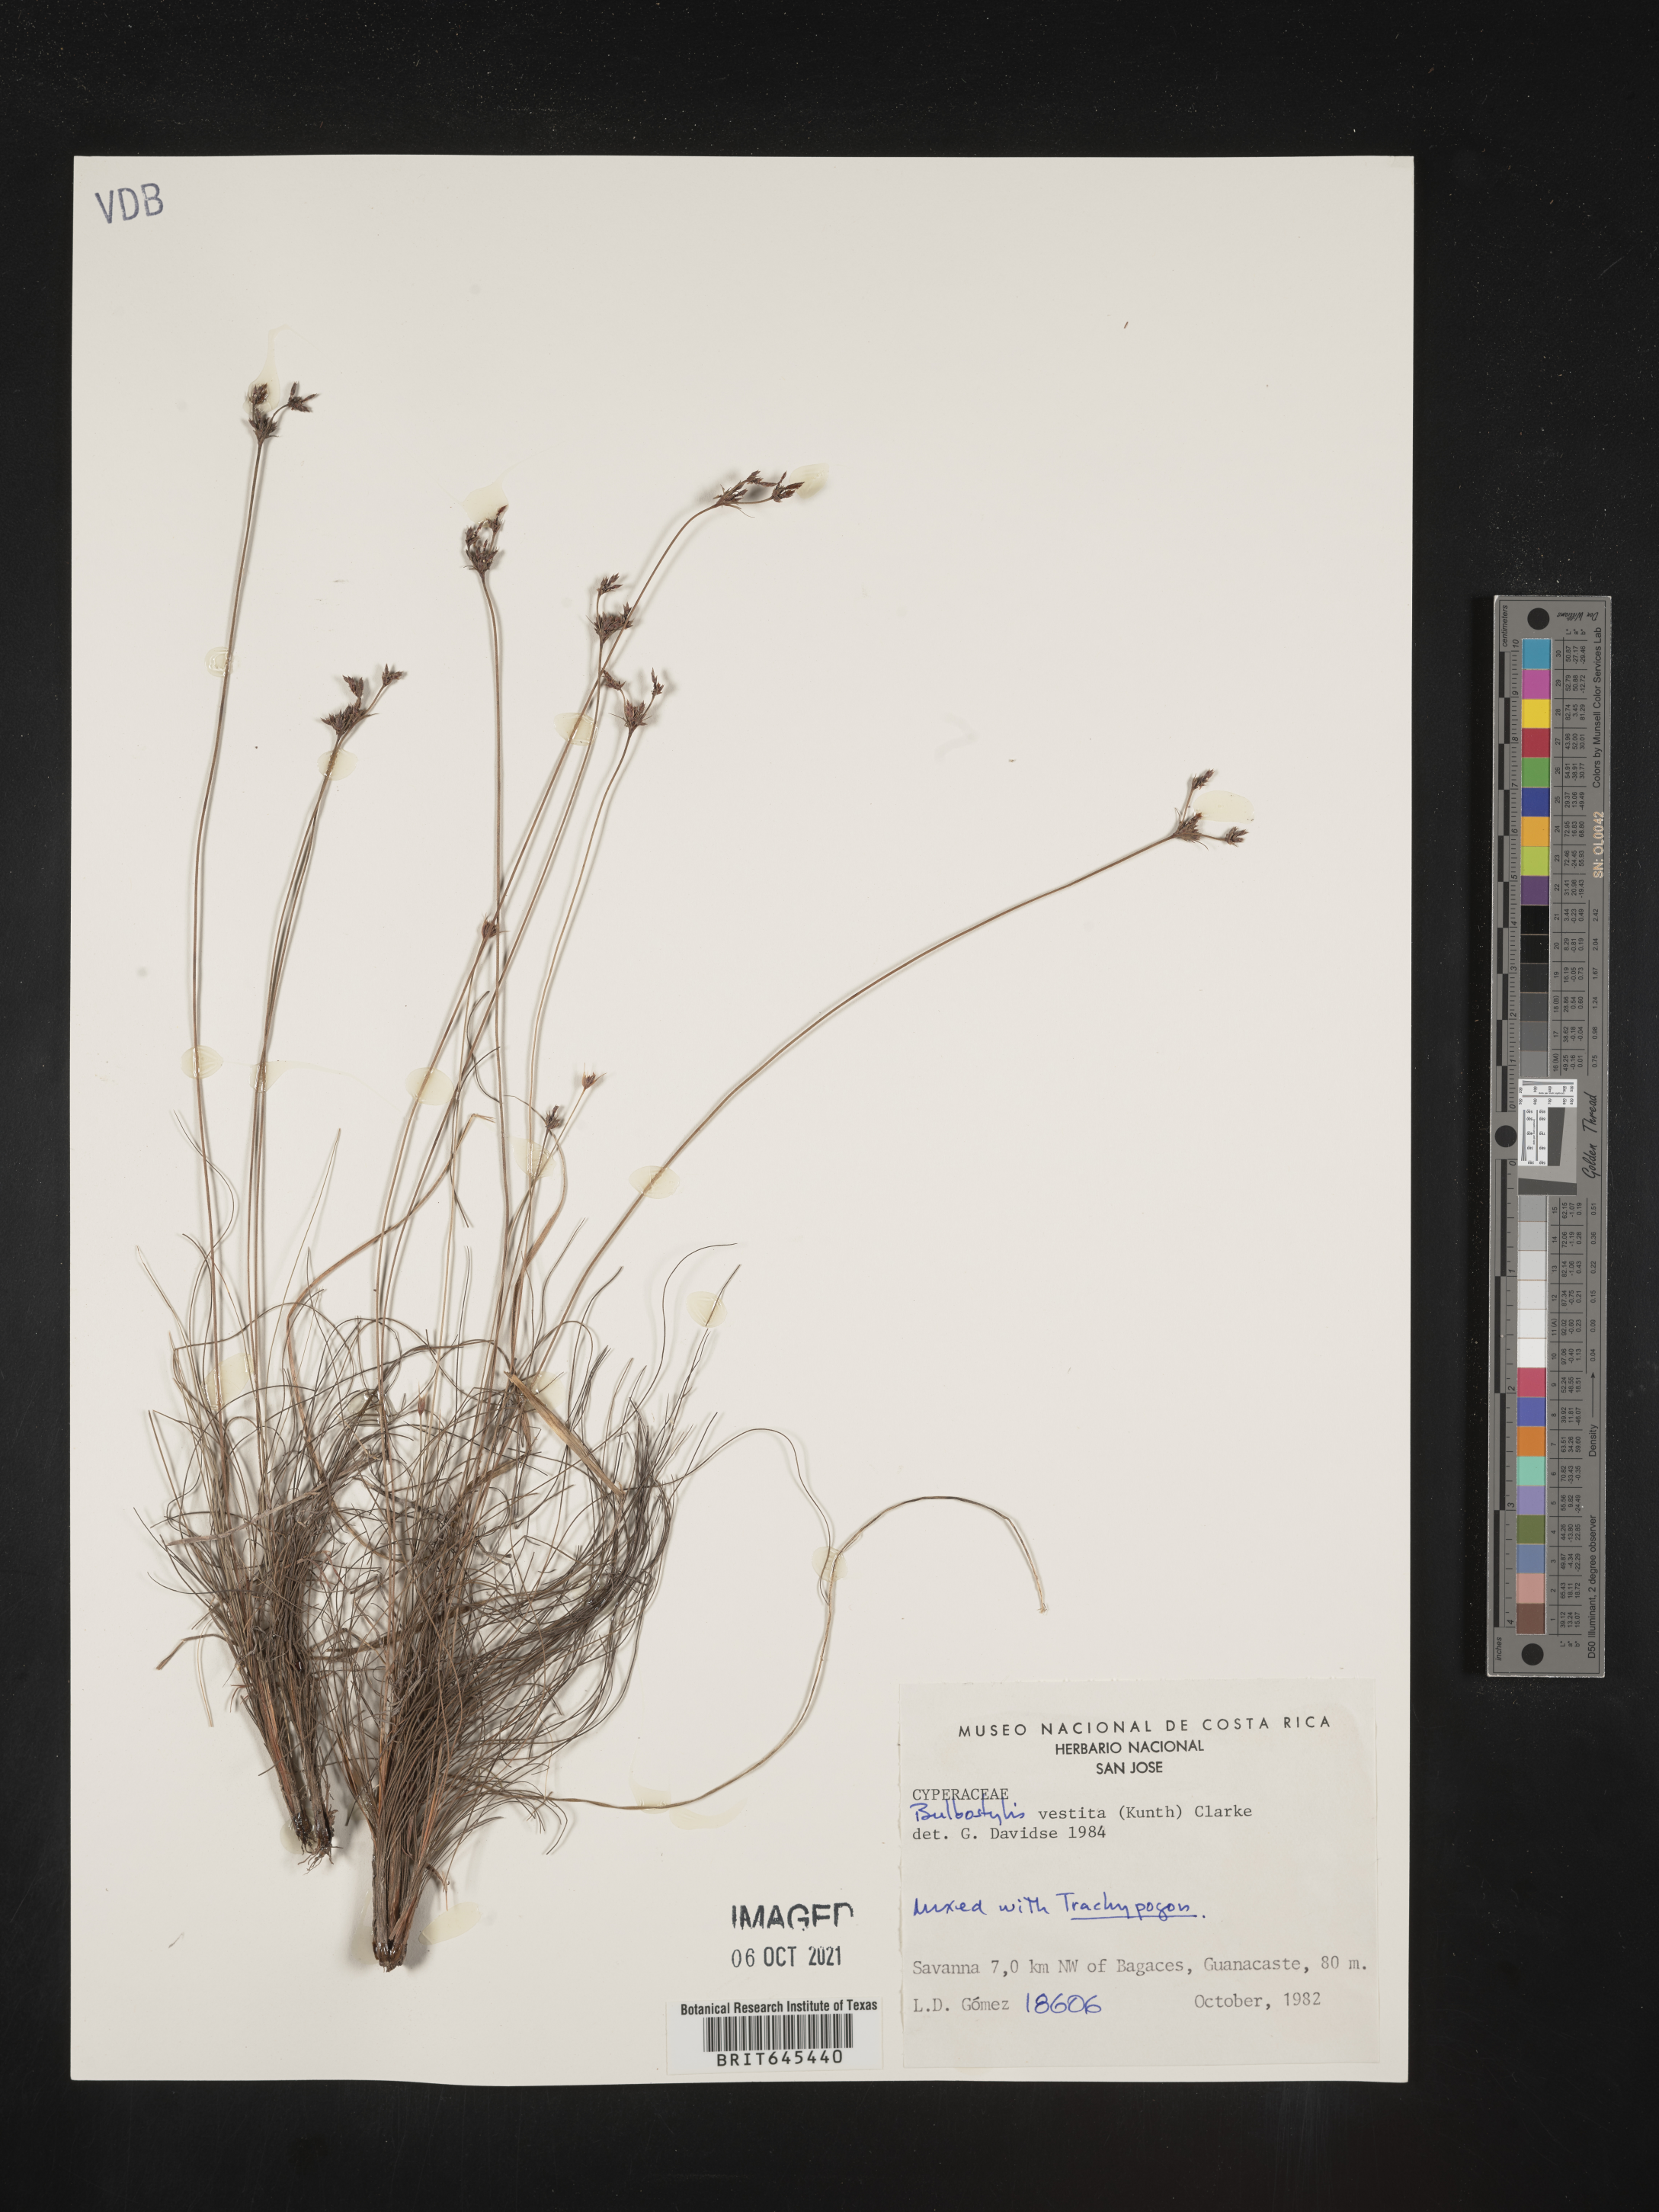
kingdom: Plantae
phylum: Tracheophyta
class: Liliopsida
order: Poales
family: Cyperaceae
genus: Bulbostylis
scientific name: Bulbostylis vestita
